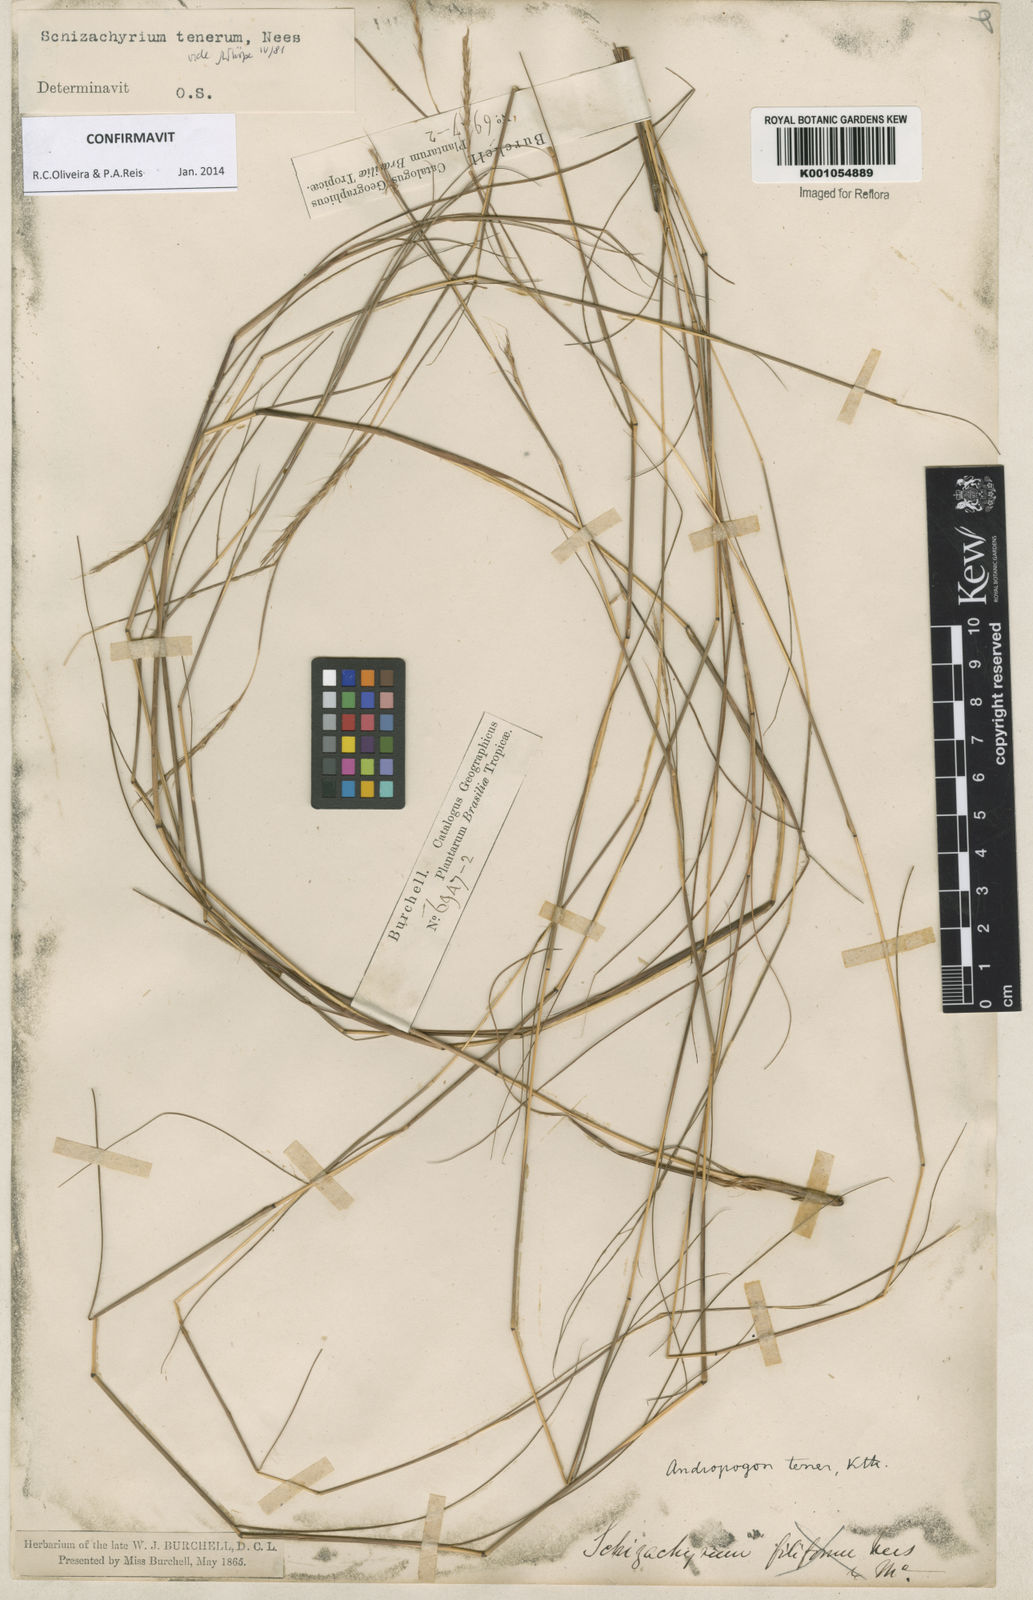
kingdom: Plantae
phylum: Tracheophyta
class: Liliopsida
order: Poales
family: Poaceae
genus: Andropogon
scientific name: Andropogon tener
